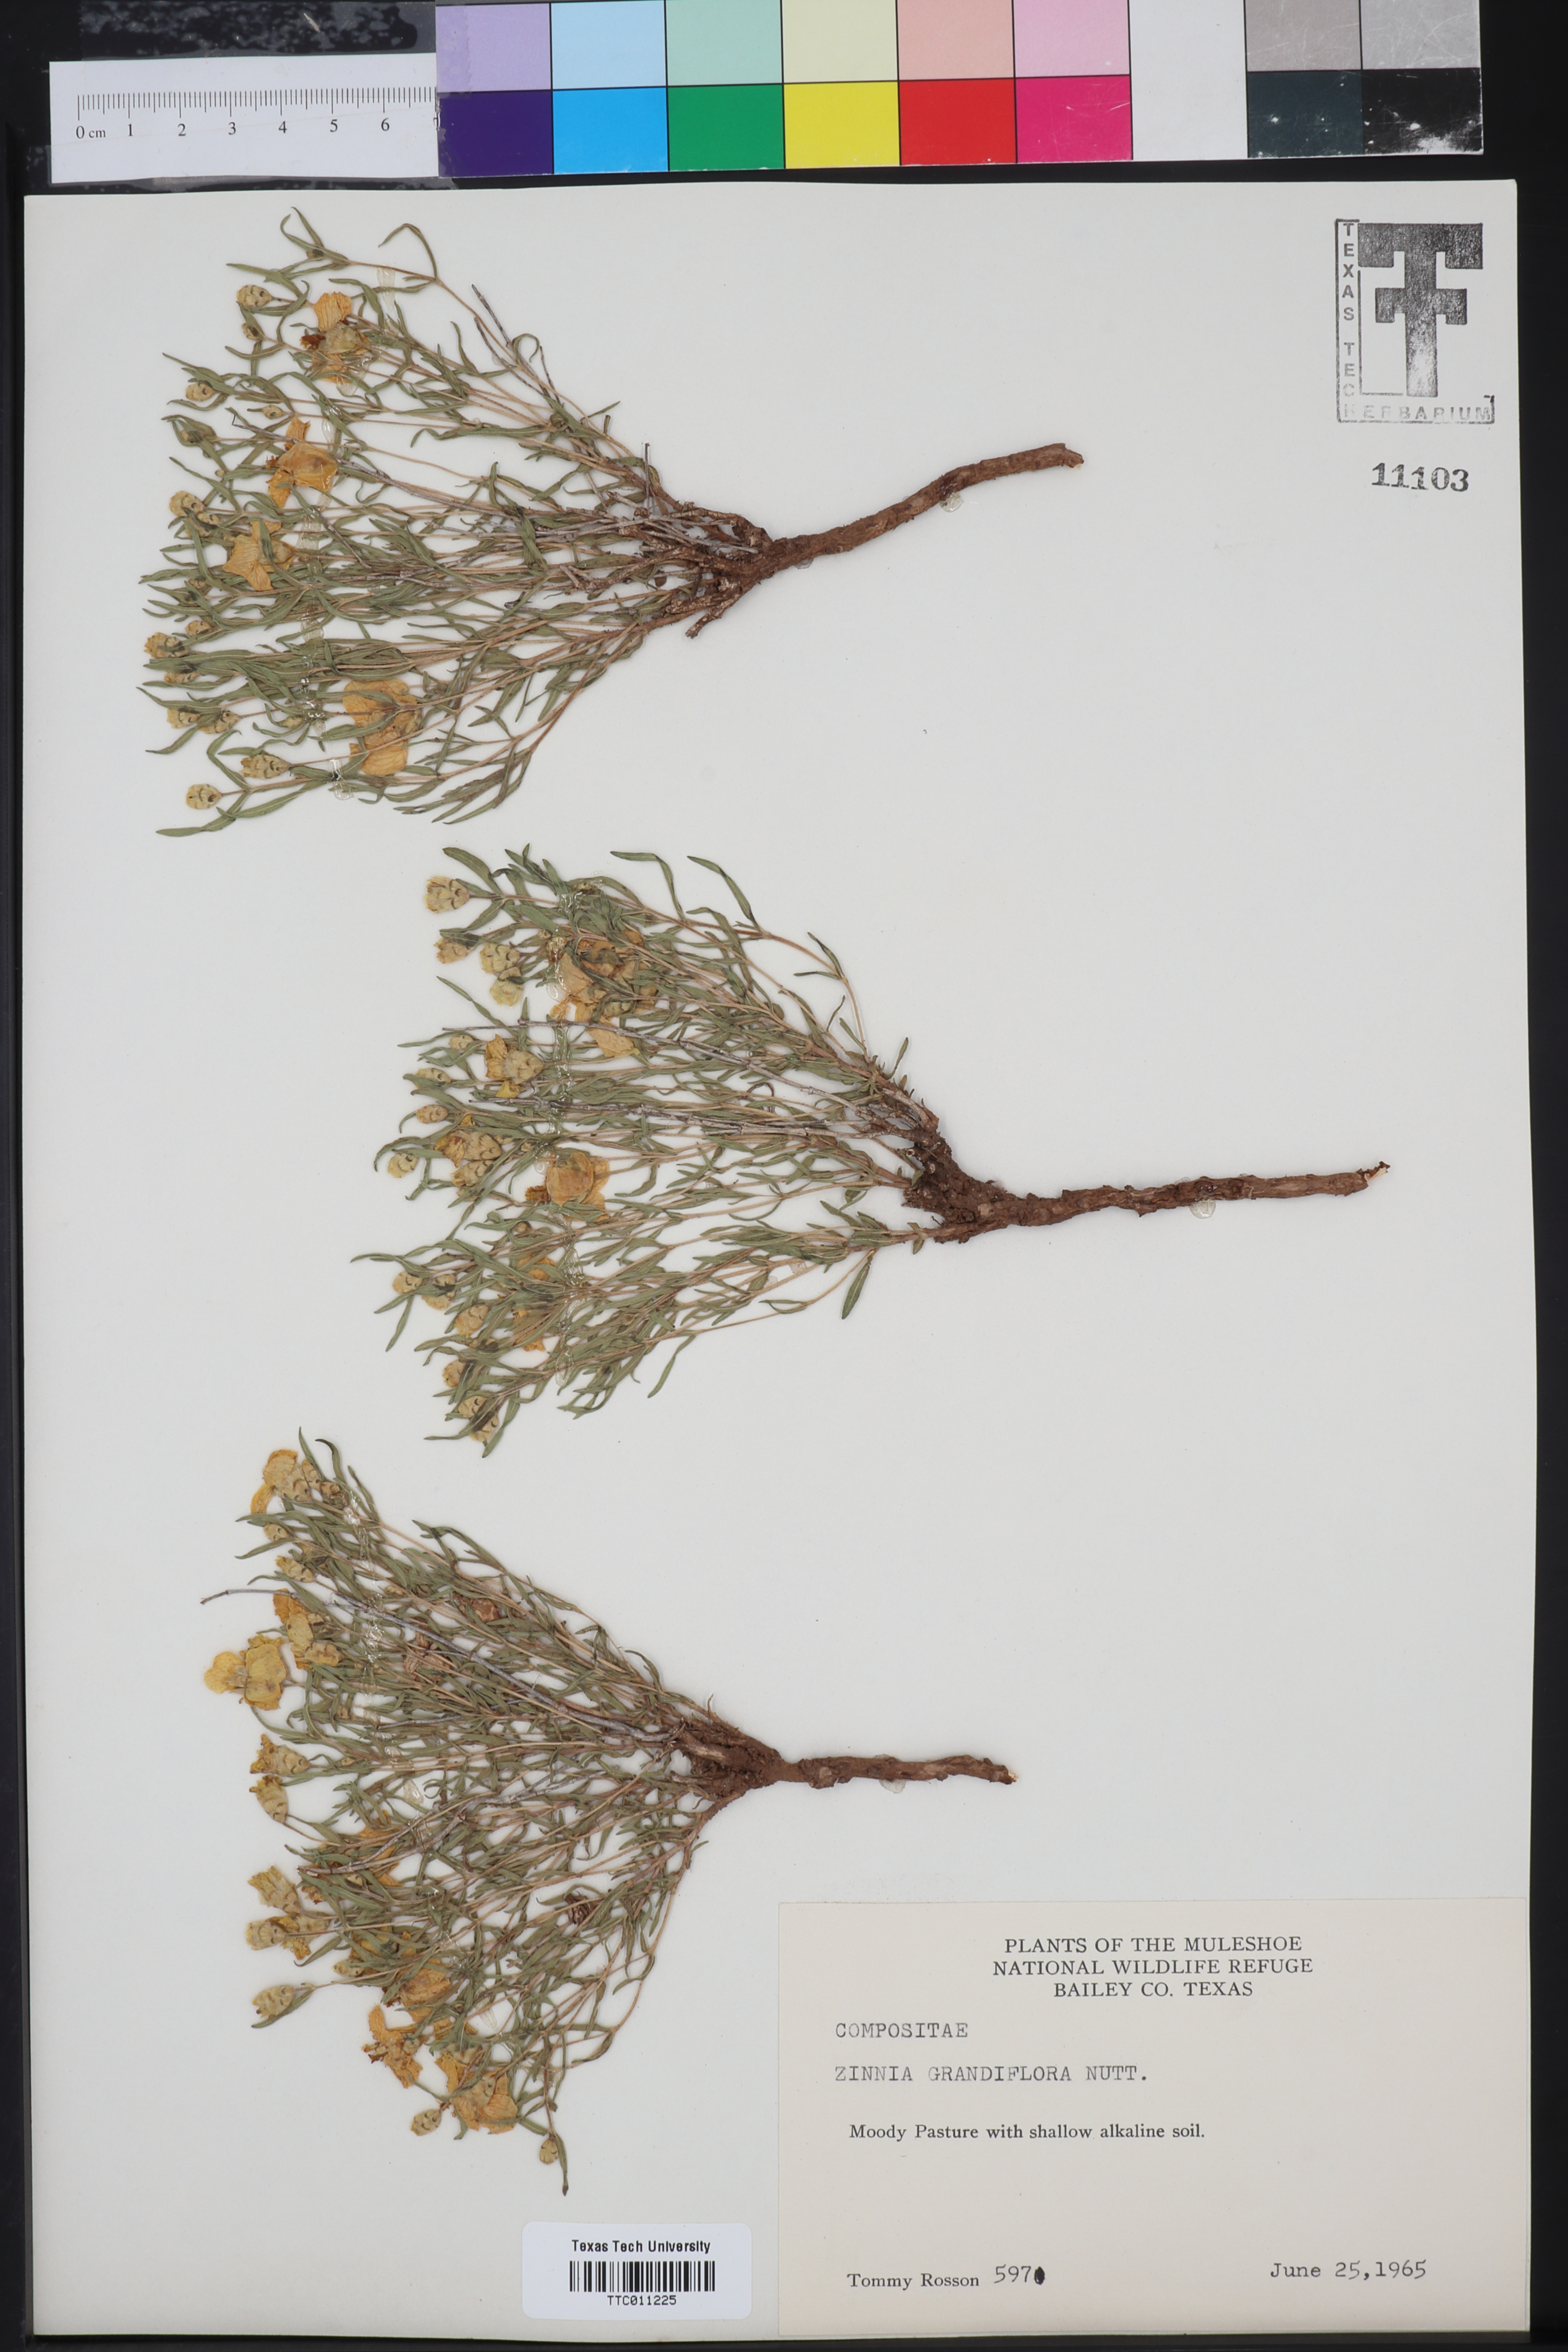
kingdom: Plantae
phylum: Tracheophyta
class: Magnoliopsida
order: Asterales
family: Asteraceae
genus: Zinnia
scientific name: Zinnia grandiflora
